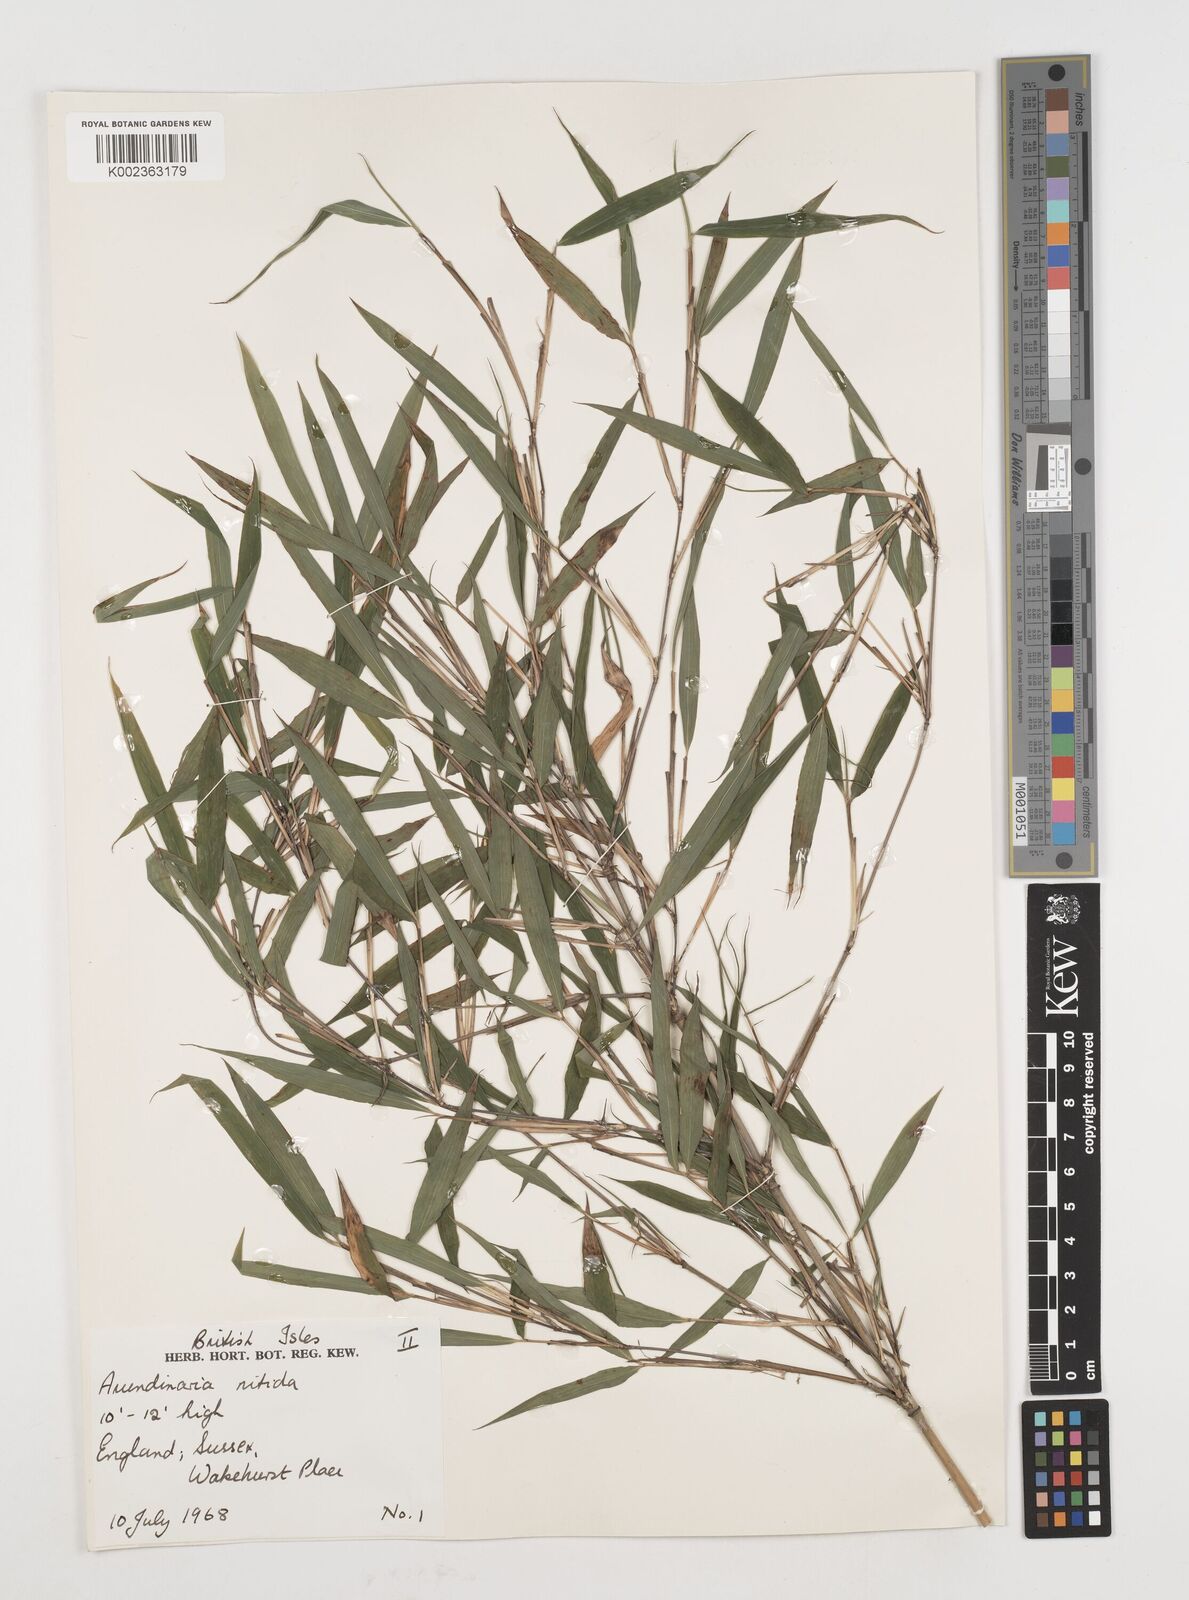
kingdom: Plantae
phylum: Tracheophyta
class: Liliopsida
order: Poales
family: Poaceae
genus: Fargesia
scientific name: Fargesia nitida ex
